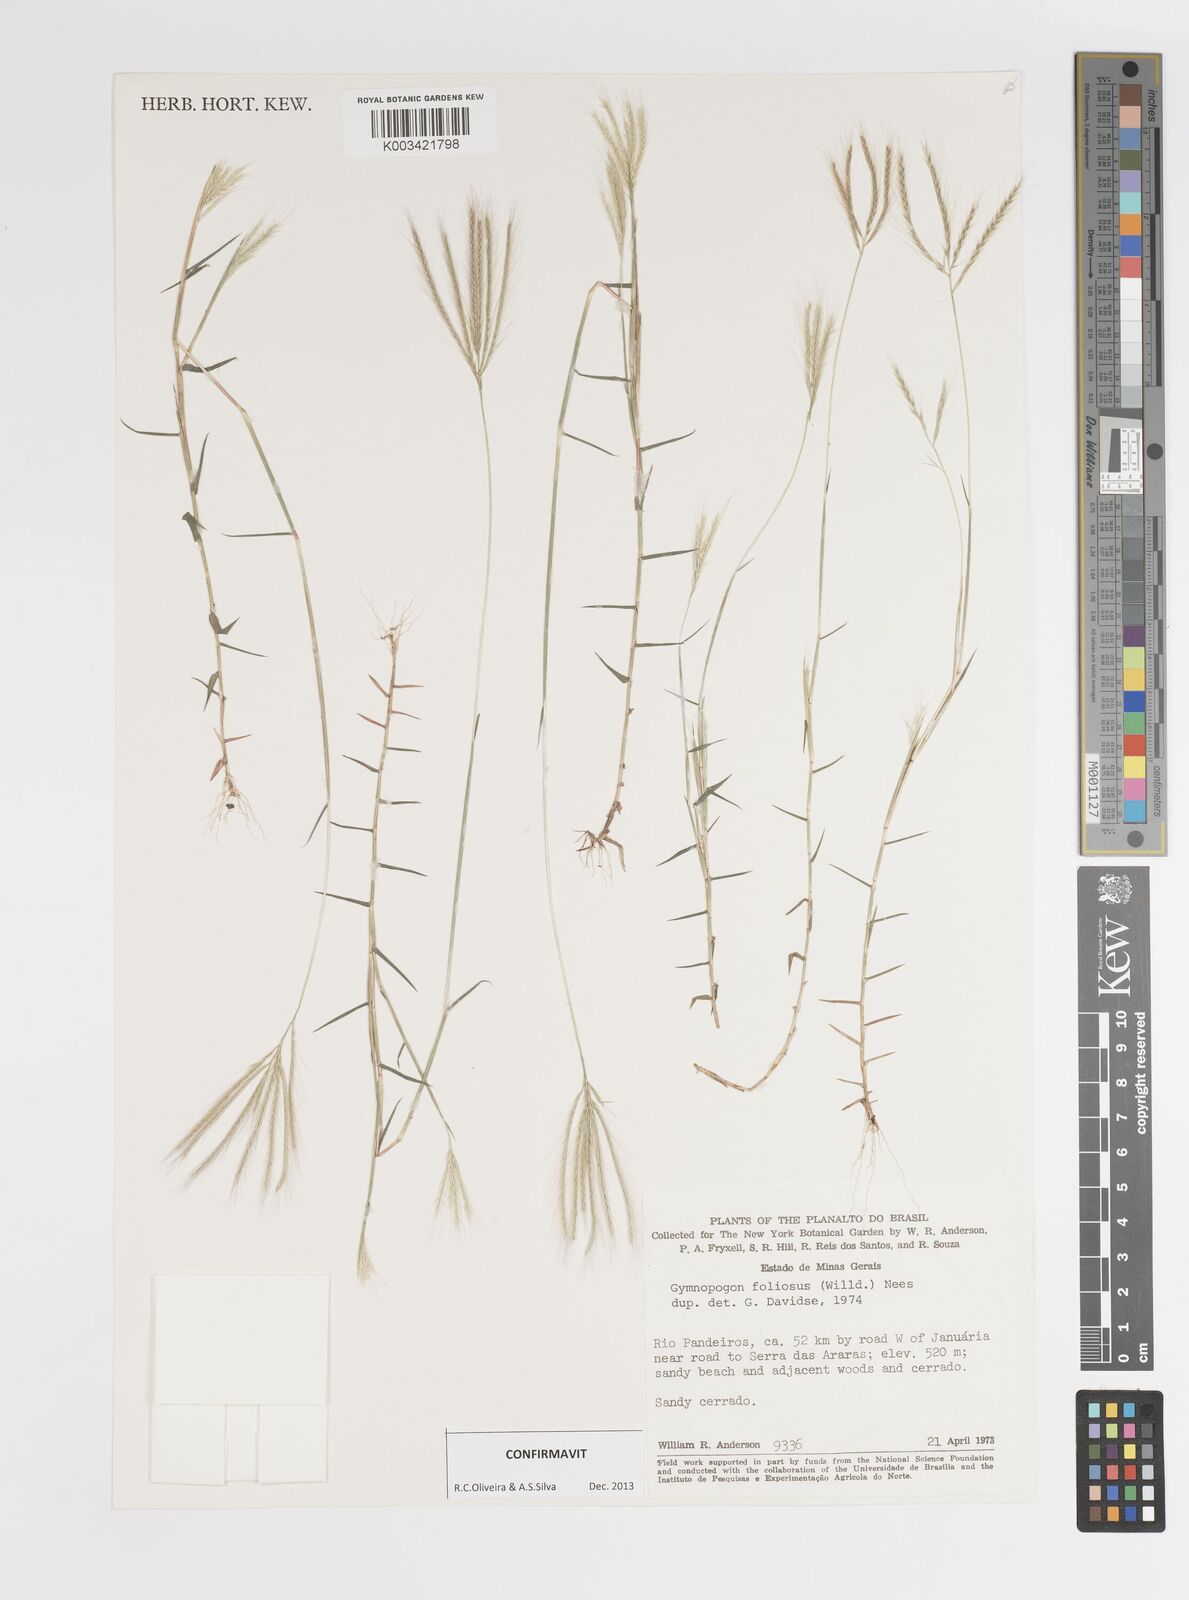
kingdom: Plantae
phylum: Tracheophyta
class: Liliopsida
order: Poales
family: Poaceae
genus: Gymnopogon
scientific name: Gymnopogon foliosus
